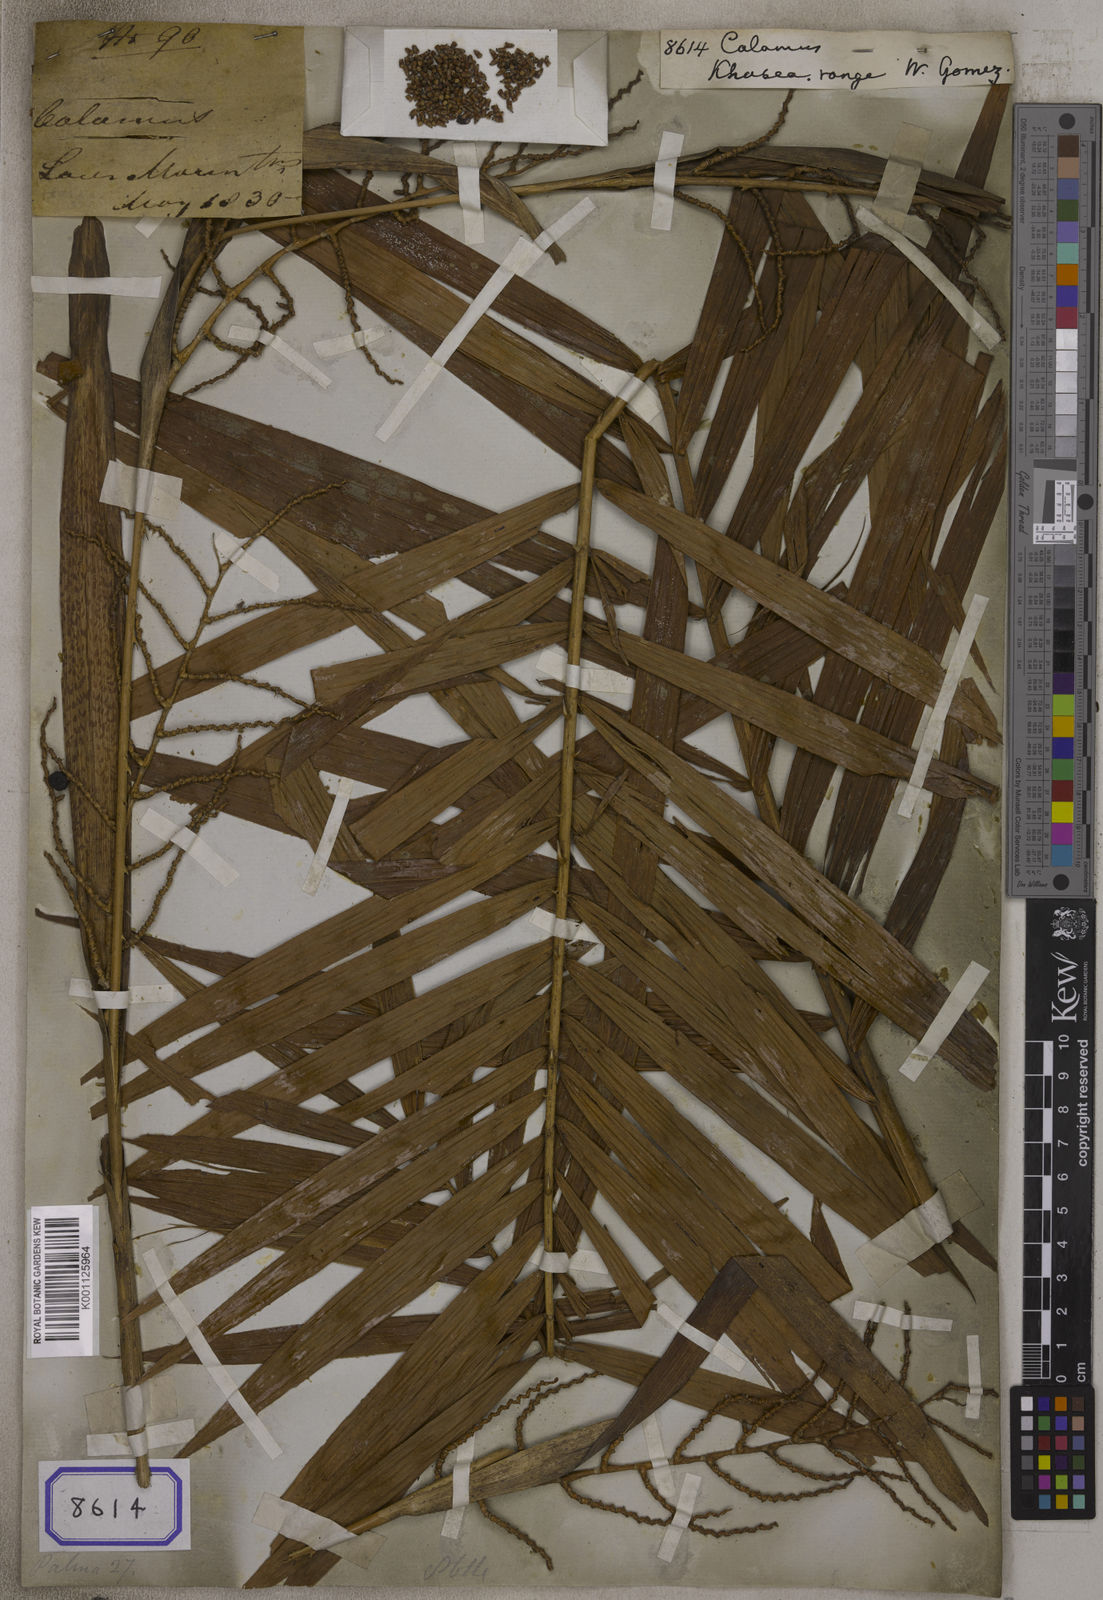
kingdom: Plantae
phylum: Tracheophyta
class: Liliopsida
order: Arecales
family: Arecaceae
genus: Calamus
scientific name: Calamus
